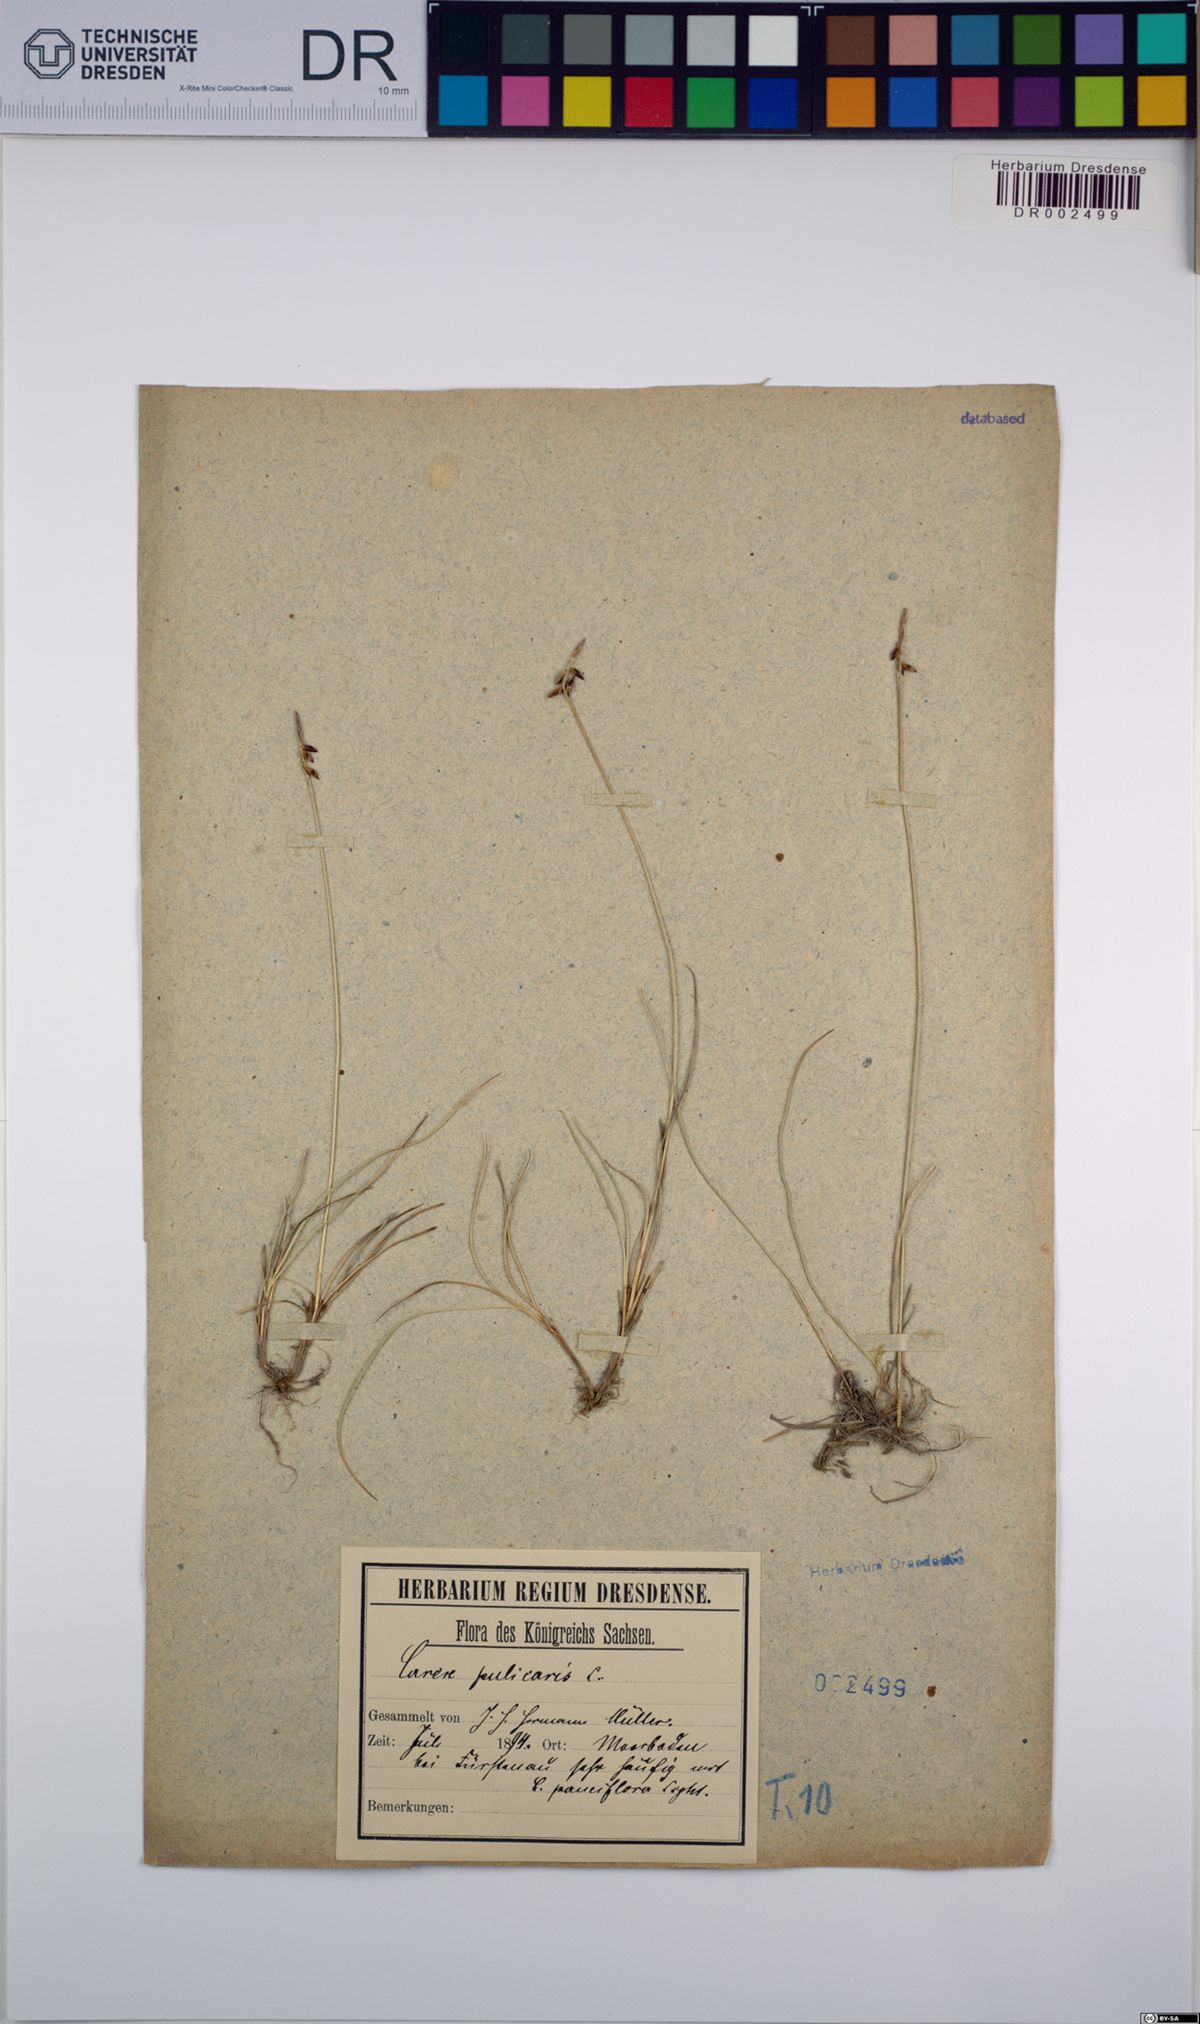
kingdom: Plantae
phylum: Tracheophyta
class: Liliopsida
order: Poales
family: Cyperaceae
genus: Carex
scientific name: Carex pulicaris
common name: Flea sedge
